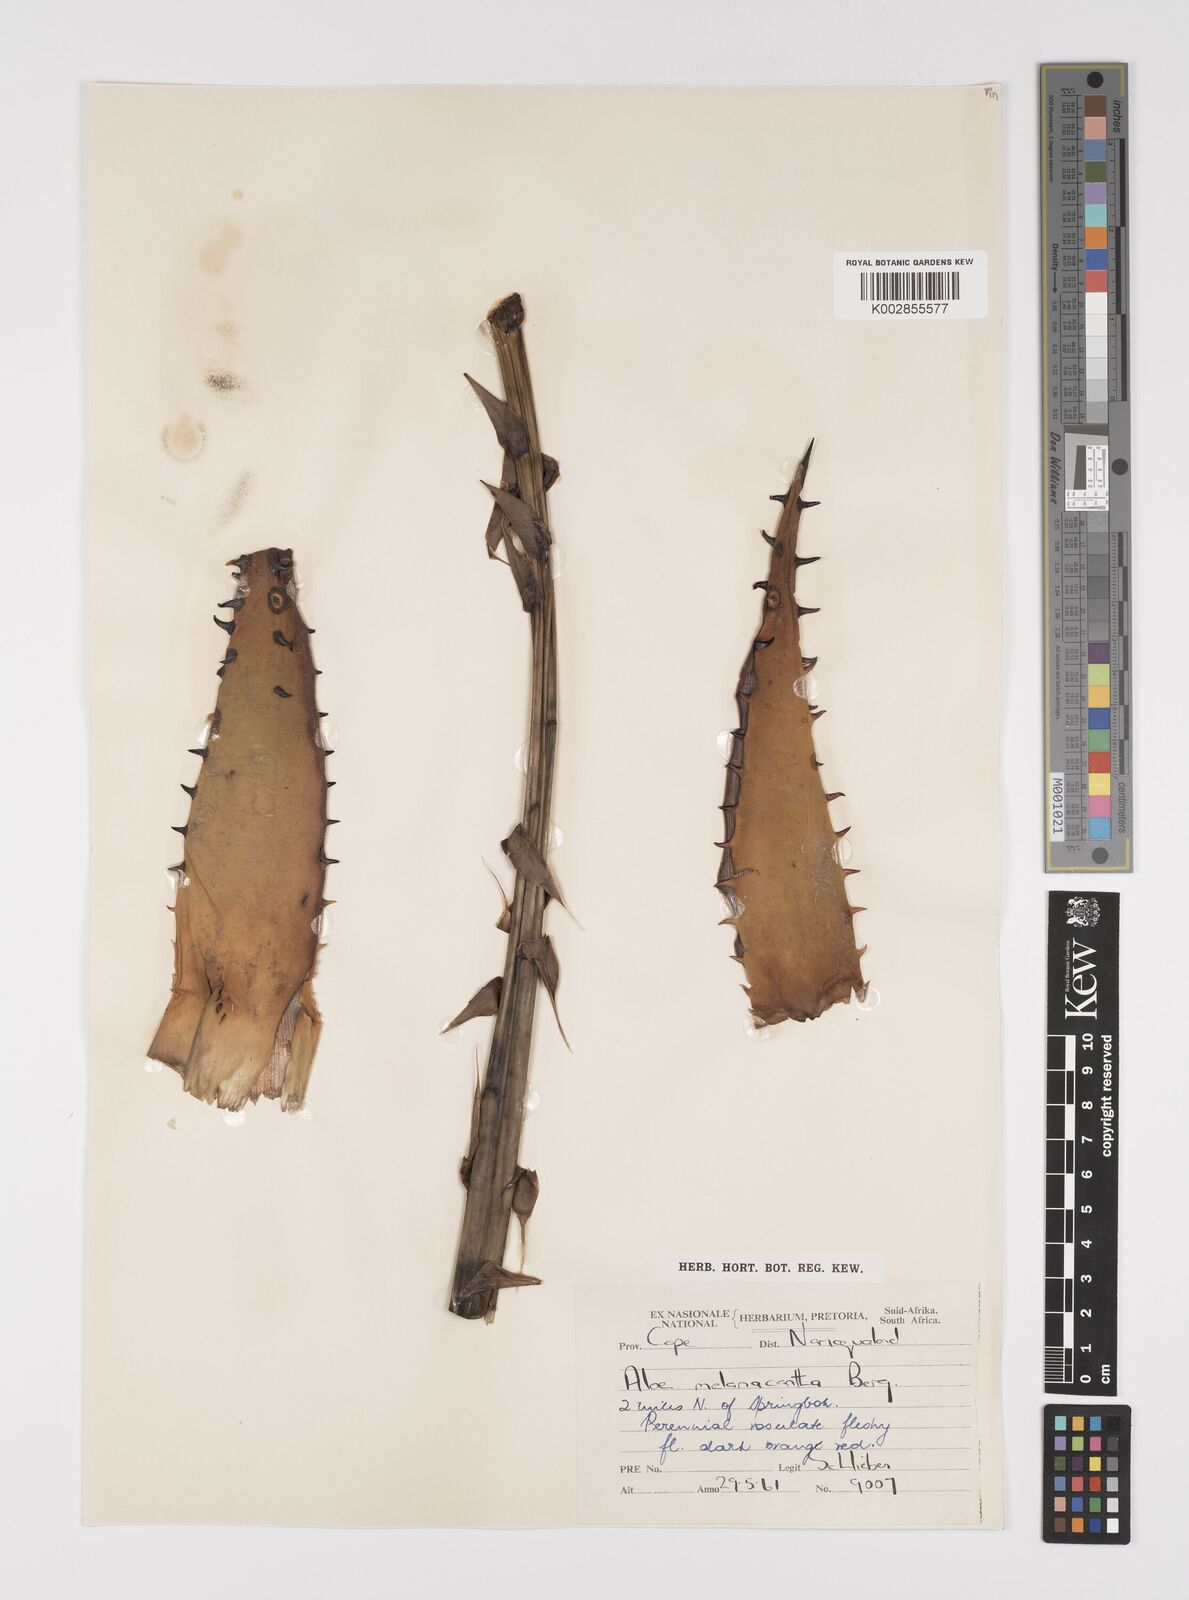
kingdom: Plantae
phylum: Tracheophyta
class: Liliopsida
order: Asparagales
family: Asphodelaceae
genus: Aloe
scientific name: Aloe melanacantha
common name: Black thorn aloe
